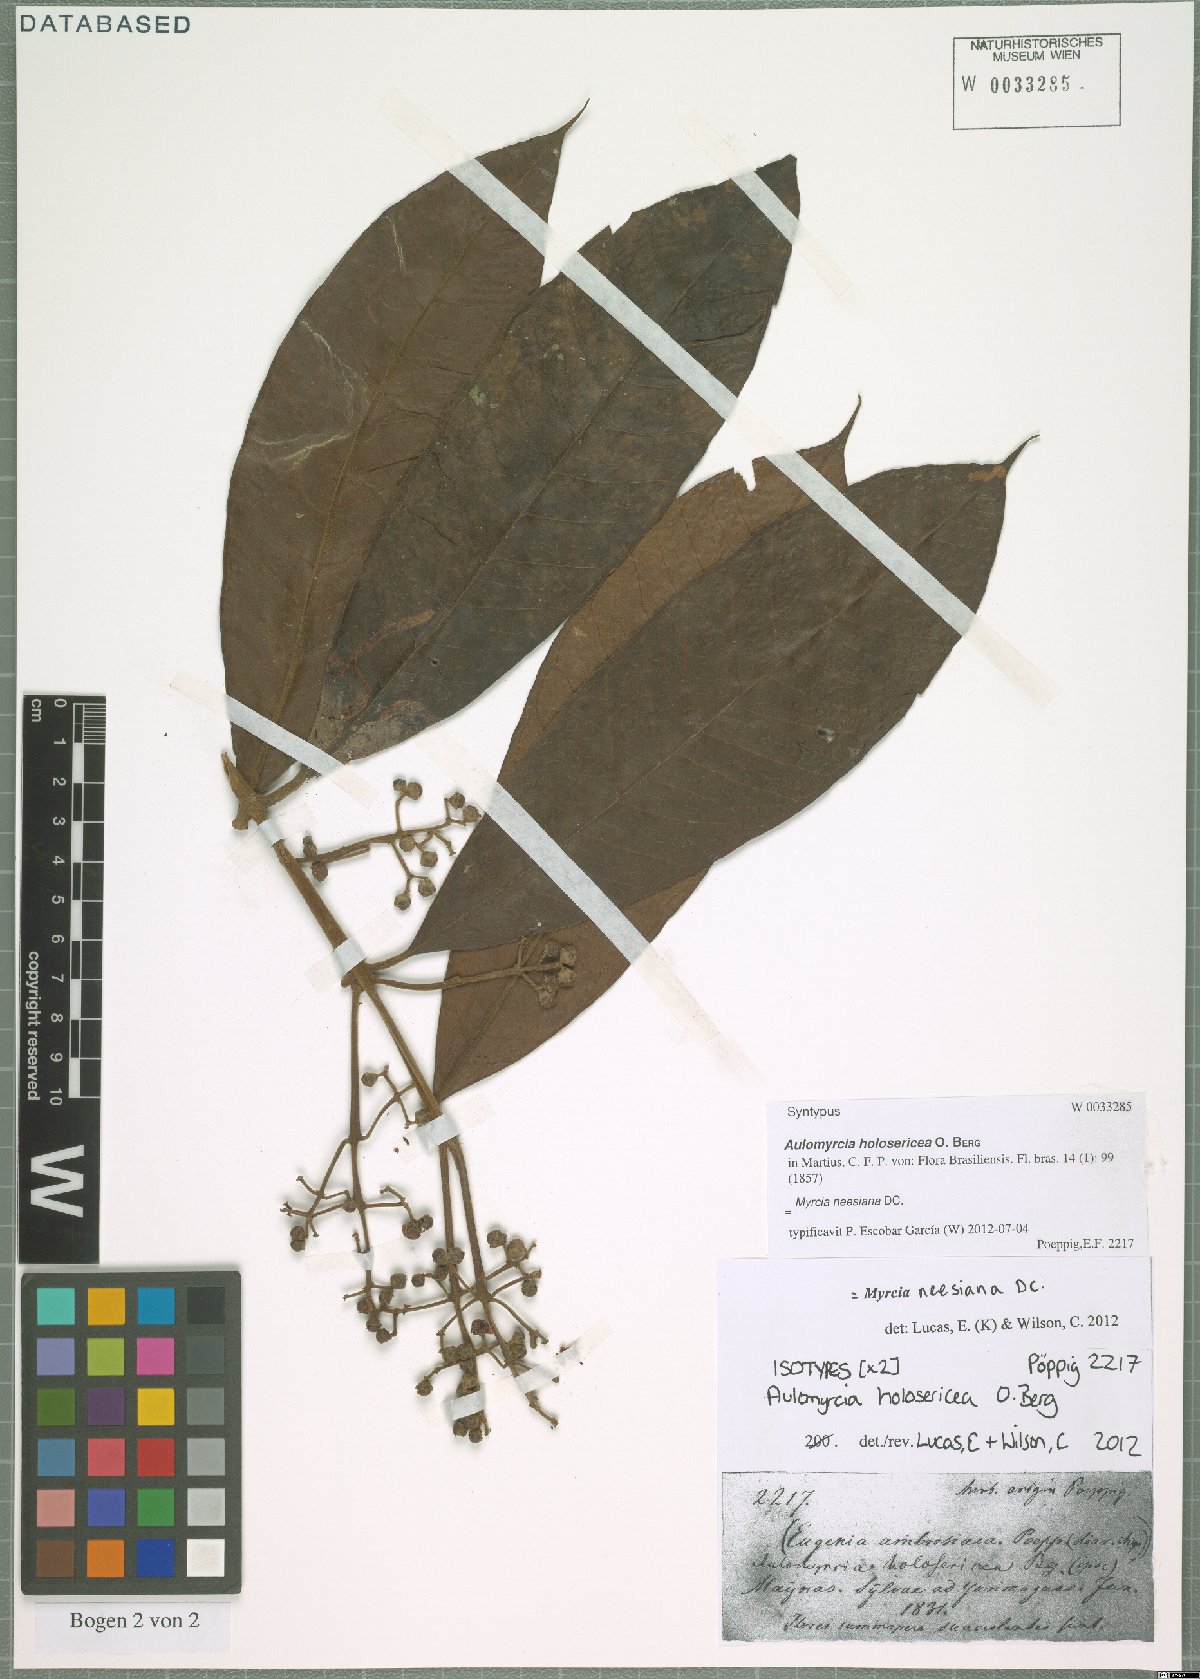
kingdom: Plantae
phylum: Tracheophyta
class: Magnoliopsida
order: Myrtales
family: Myrtaceae
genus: Myrcia
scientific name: Myrcia neesiana
